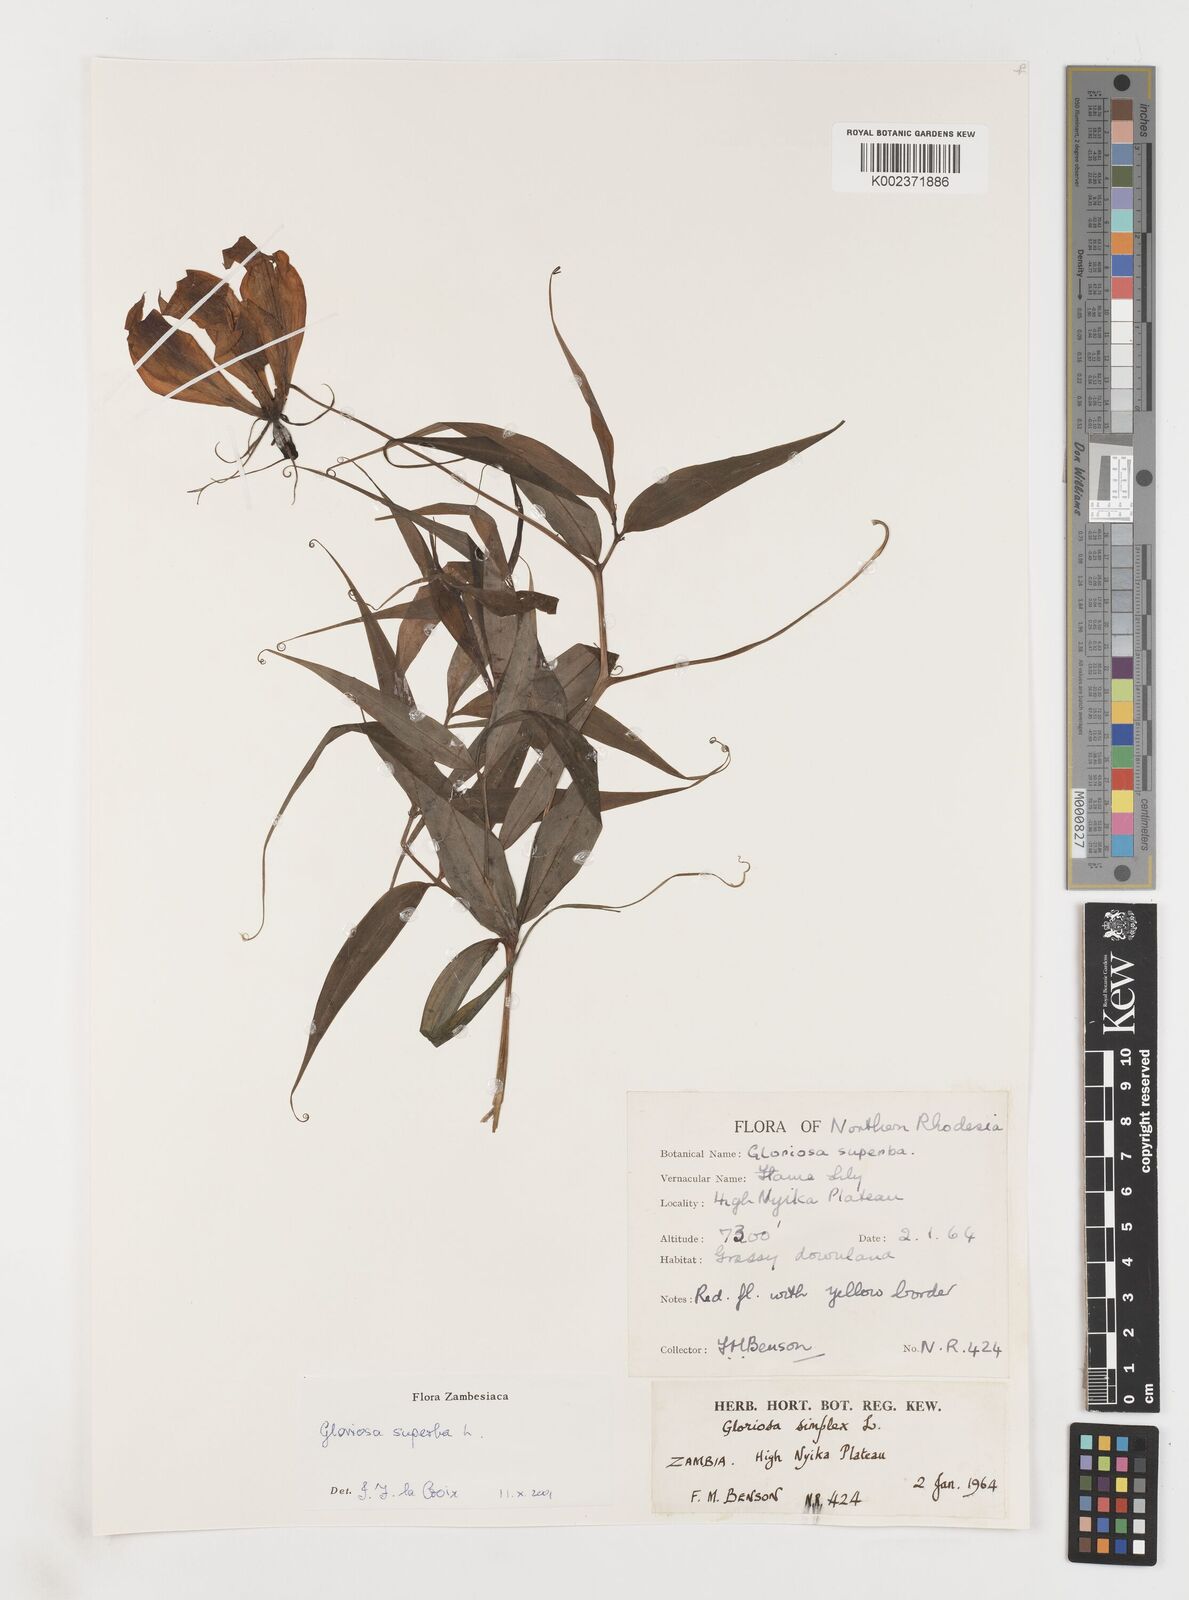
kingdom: Plantae
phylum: Tracheophyta
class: Liliopsida
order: Liliales
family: Colchicaceae
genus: Gloriosa
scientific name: Gloriosa simplex
